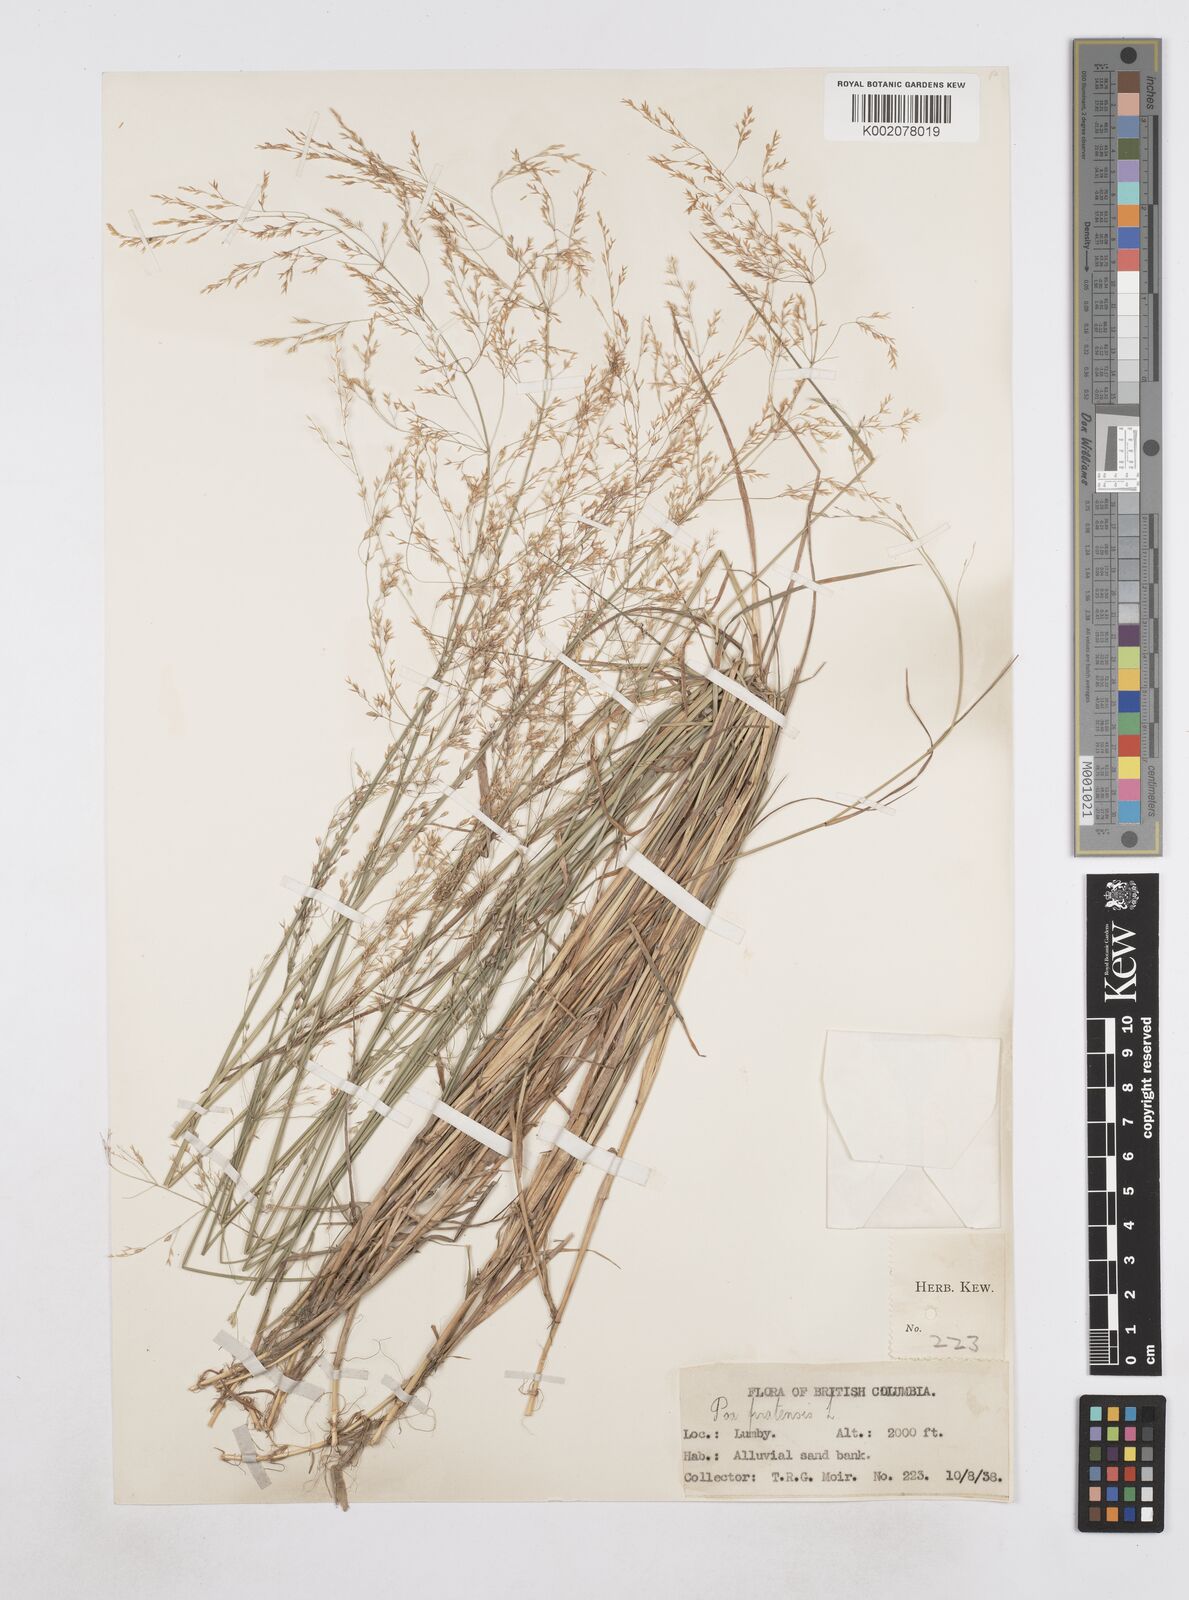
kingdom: Plantae
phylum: Tracheophyta
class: Liliopsida
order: Poales
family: Poaceae
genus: Poa
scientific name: Poa
